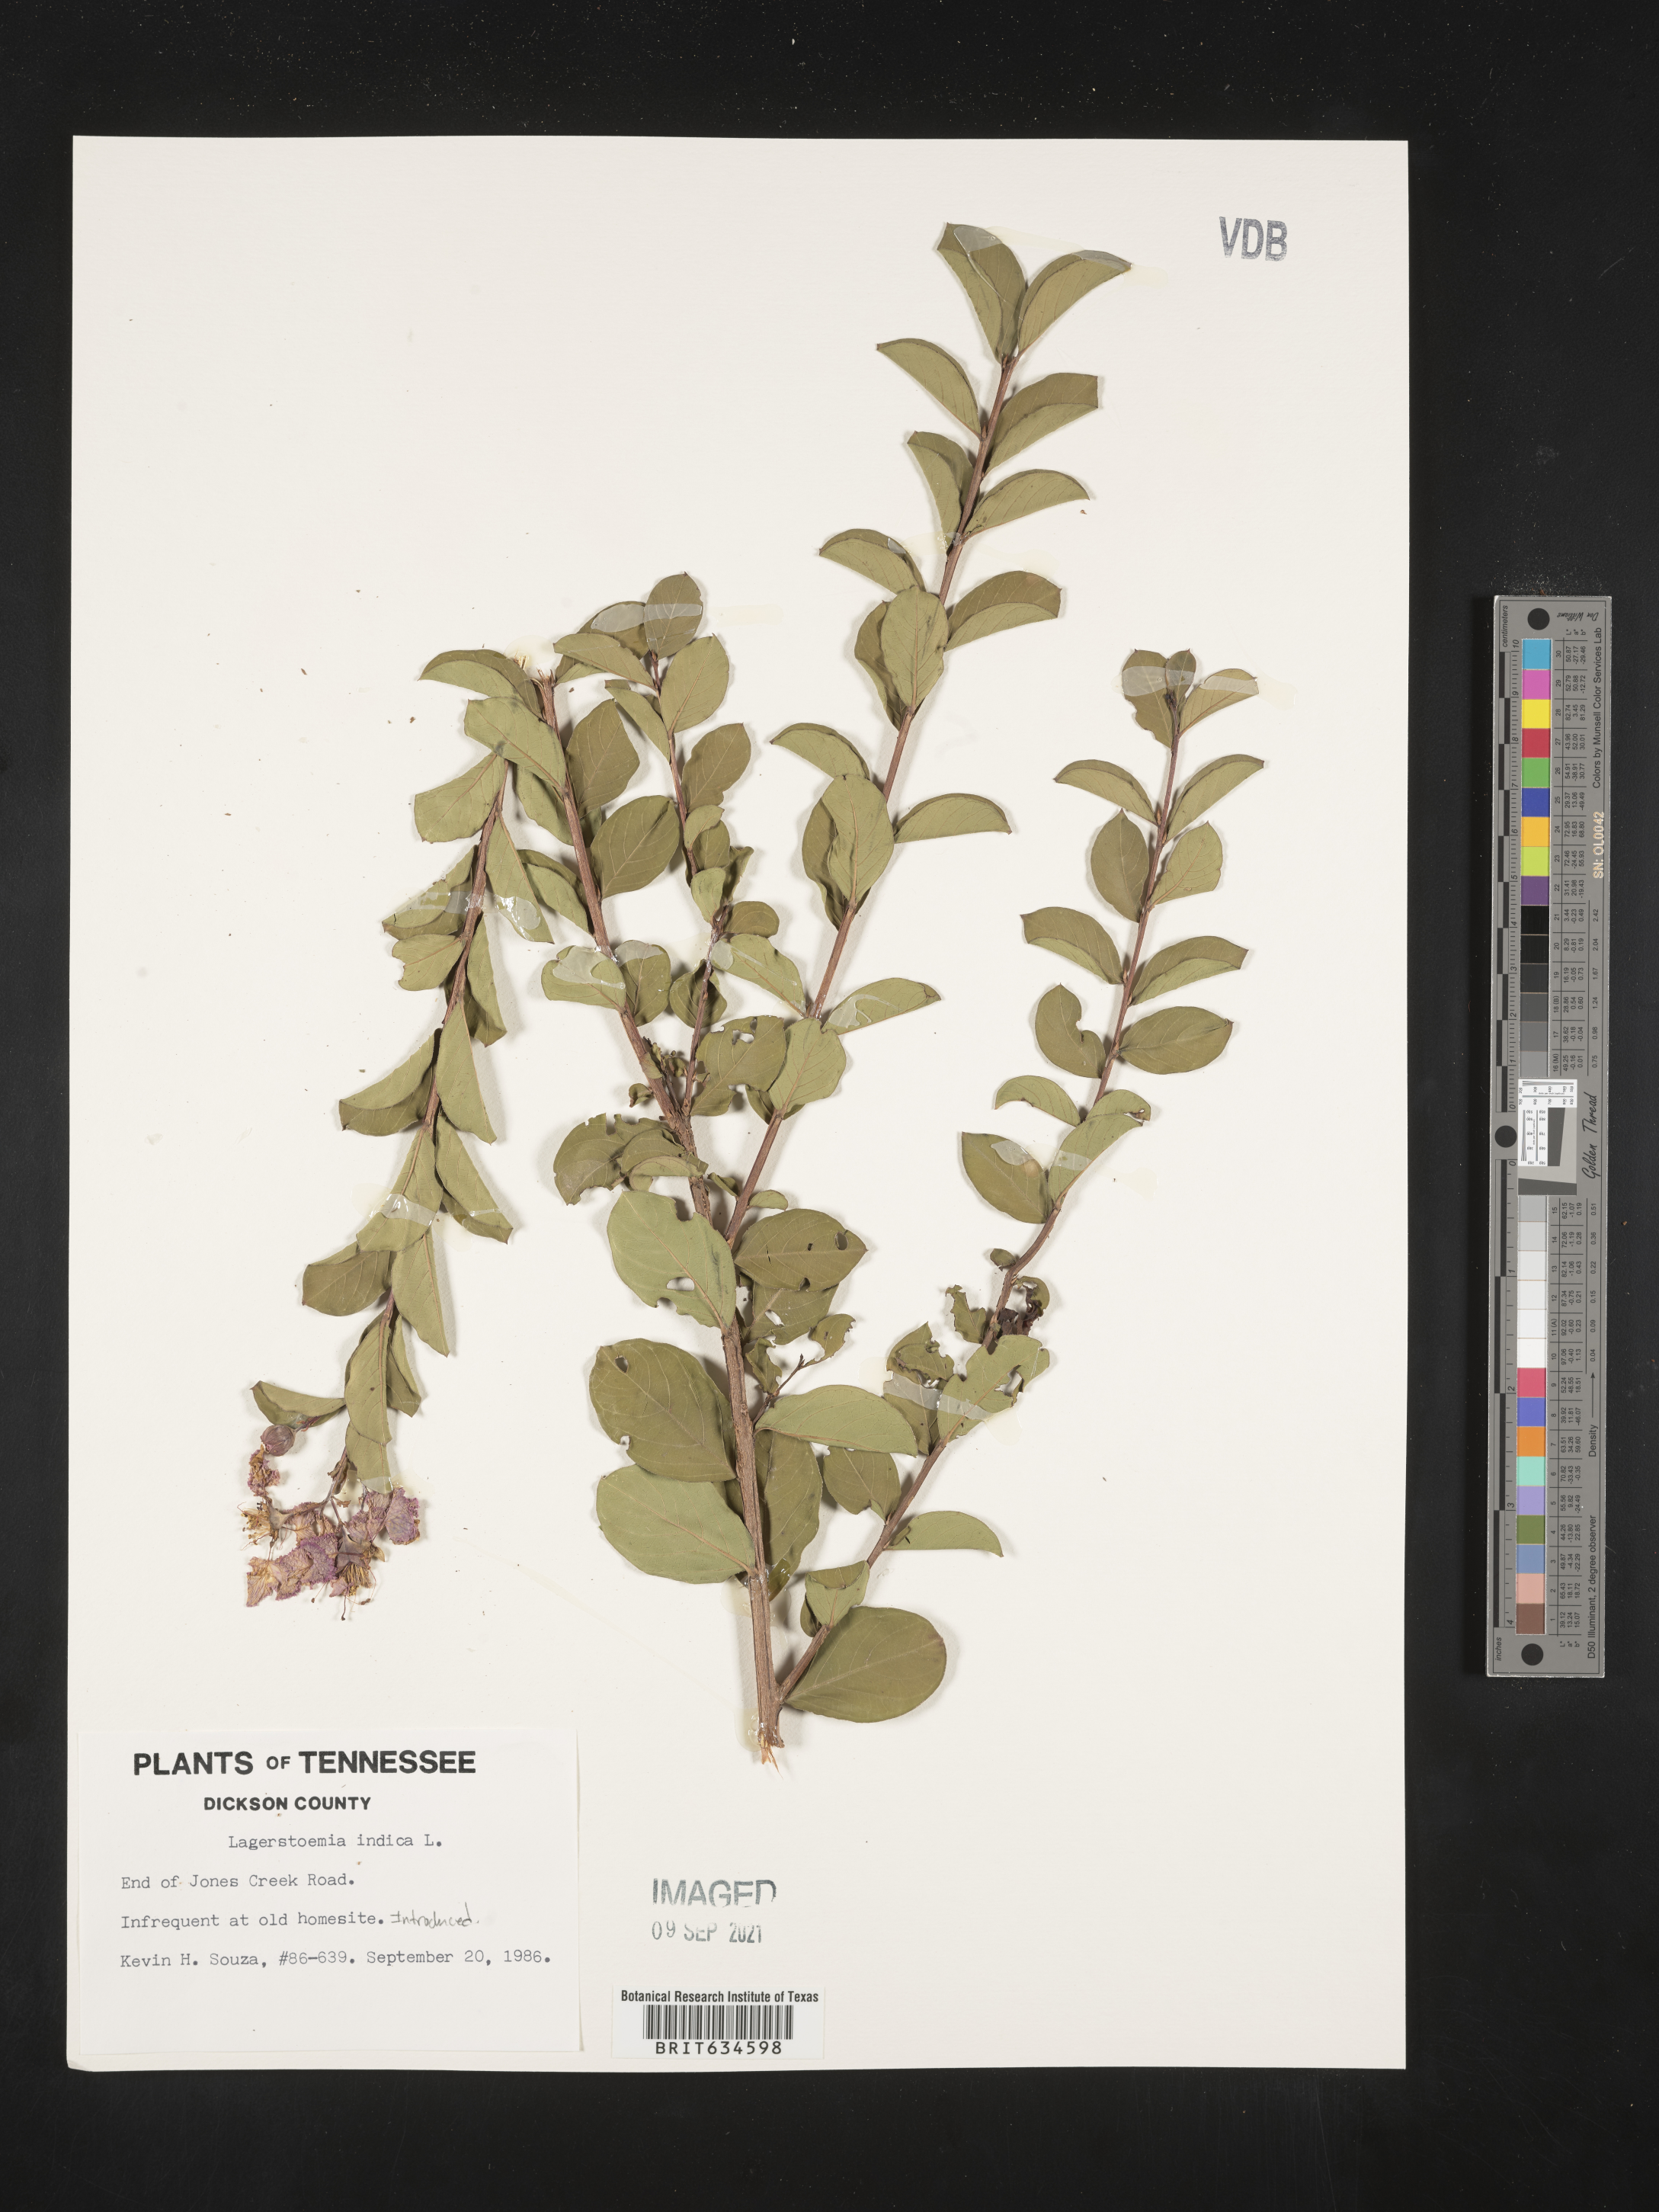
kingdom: Plantae
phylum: Tracheophyta
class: Magnoliopsida
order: Myrtales
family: Lythraceae
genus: Lagerstroemia
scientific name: Lagerstroemia
